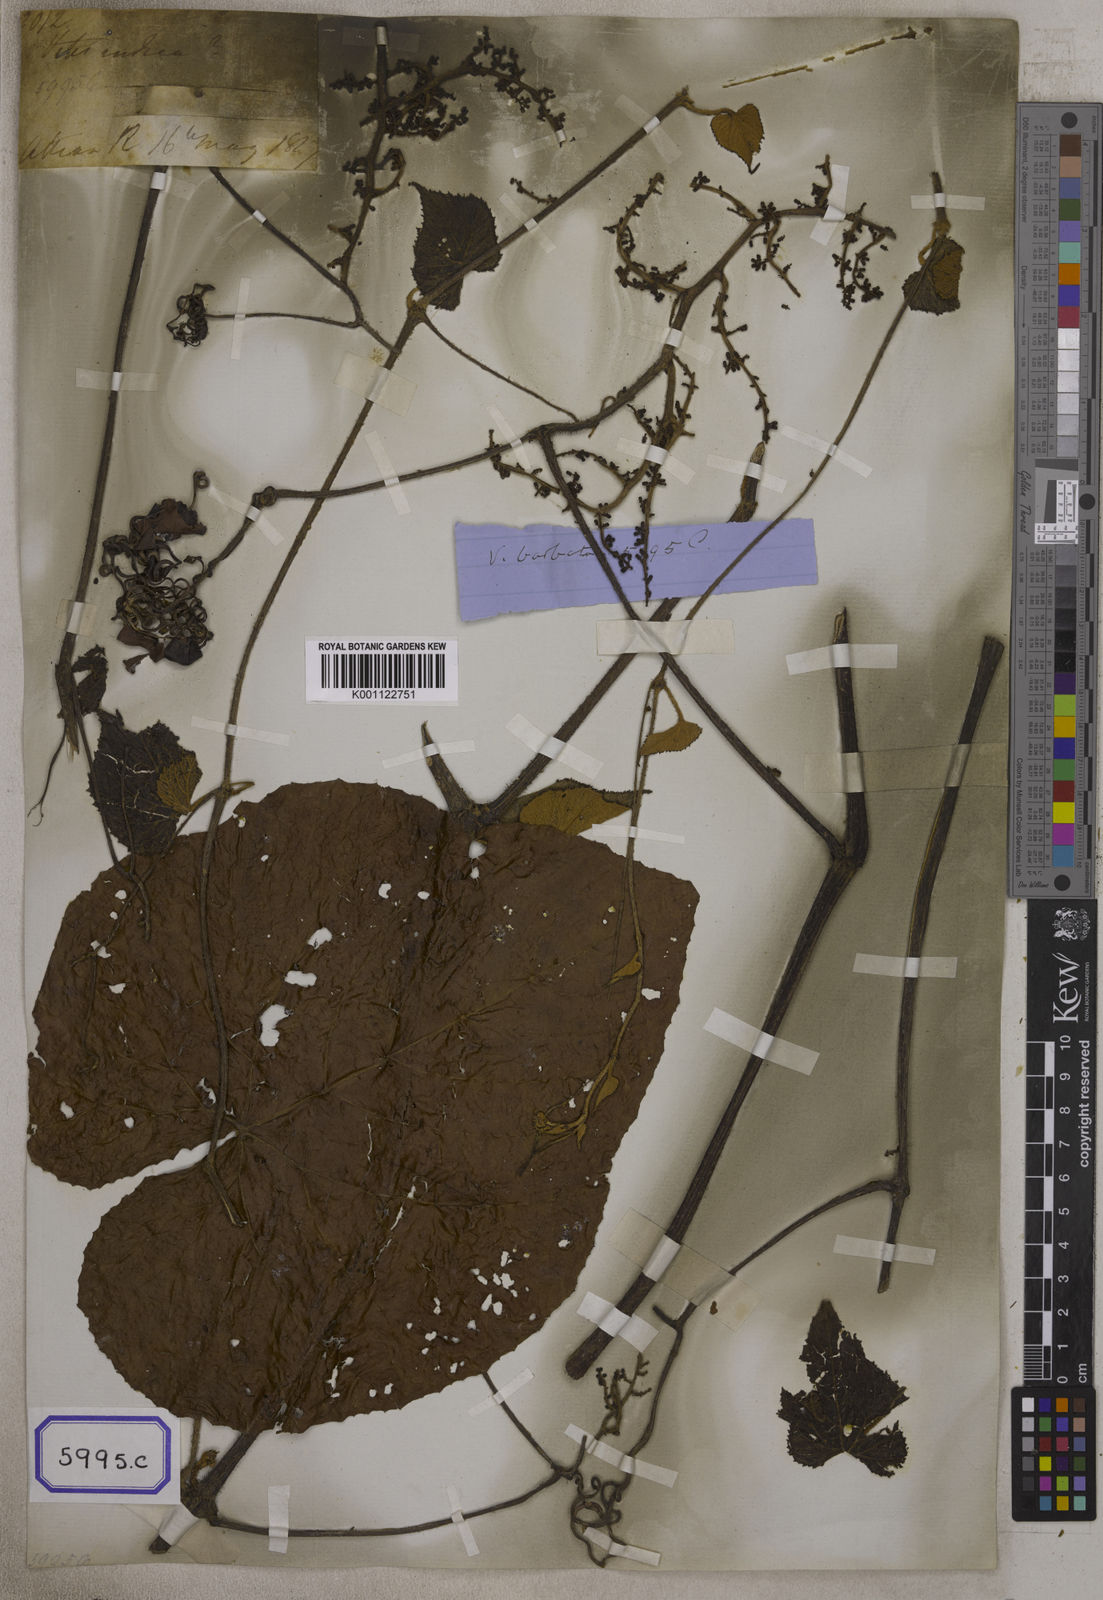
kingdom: Plantae
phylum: Tracheophyta
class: Magnoliopsida
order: Vitales
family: Vitaceae
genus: Vitis
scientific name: Vitis
